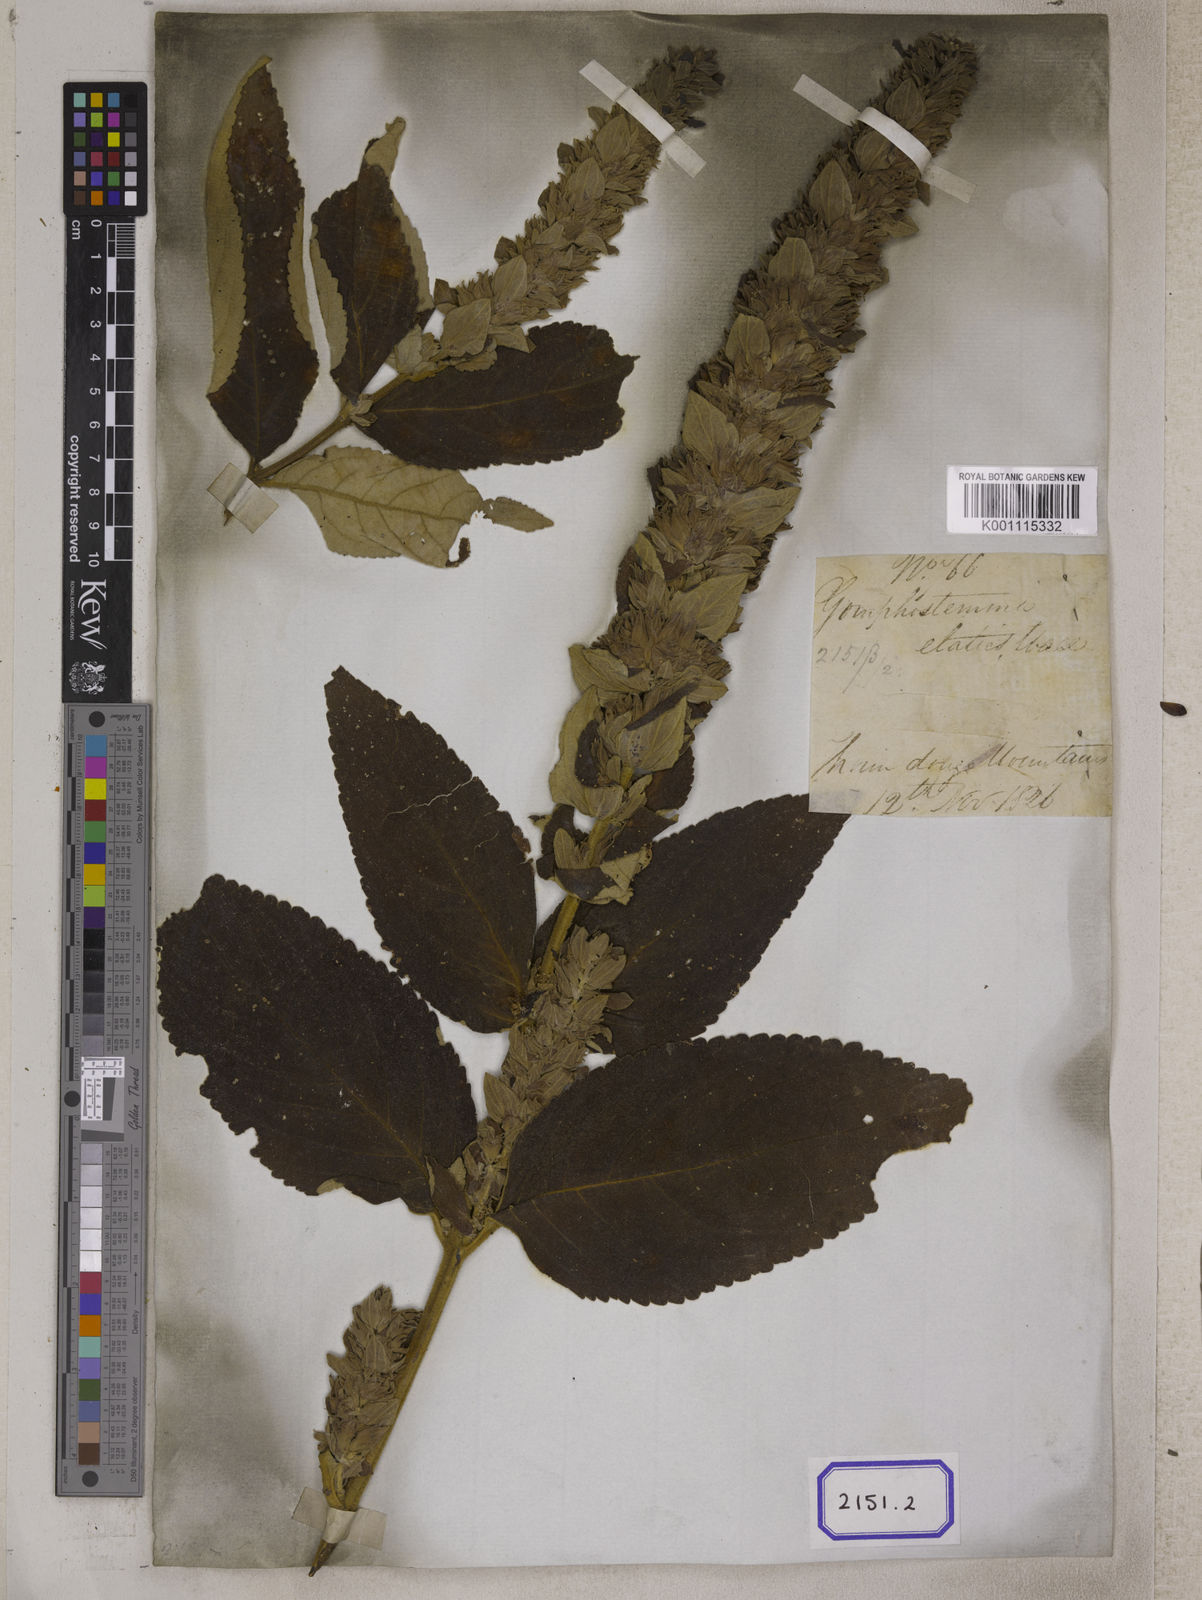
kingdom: Plantae
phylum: Tracheophyta
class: Magnoliopsida
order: Lamiales
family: Lamiaceae
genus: Gomphostemma
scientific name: Gomphostemma
